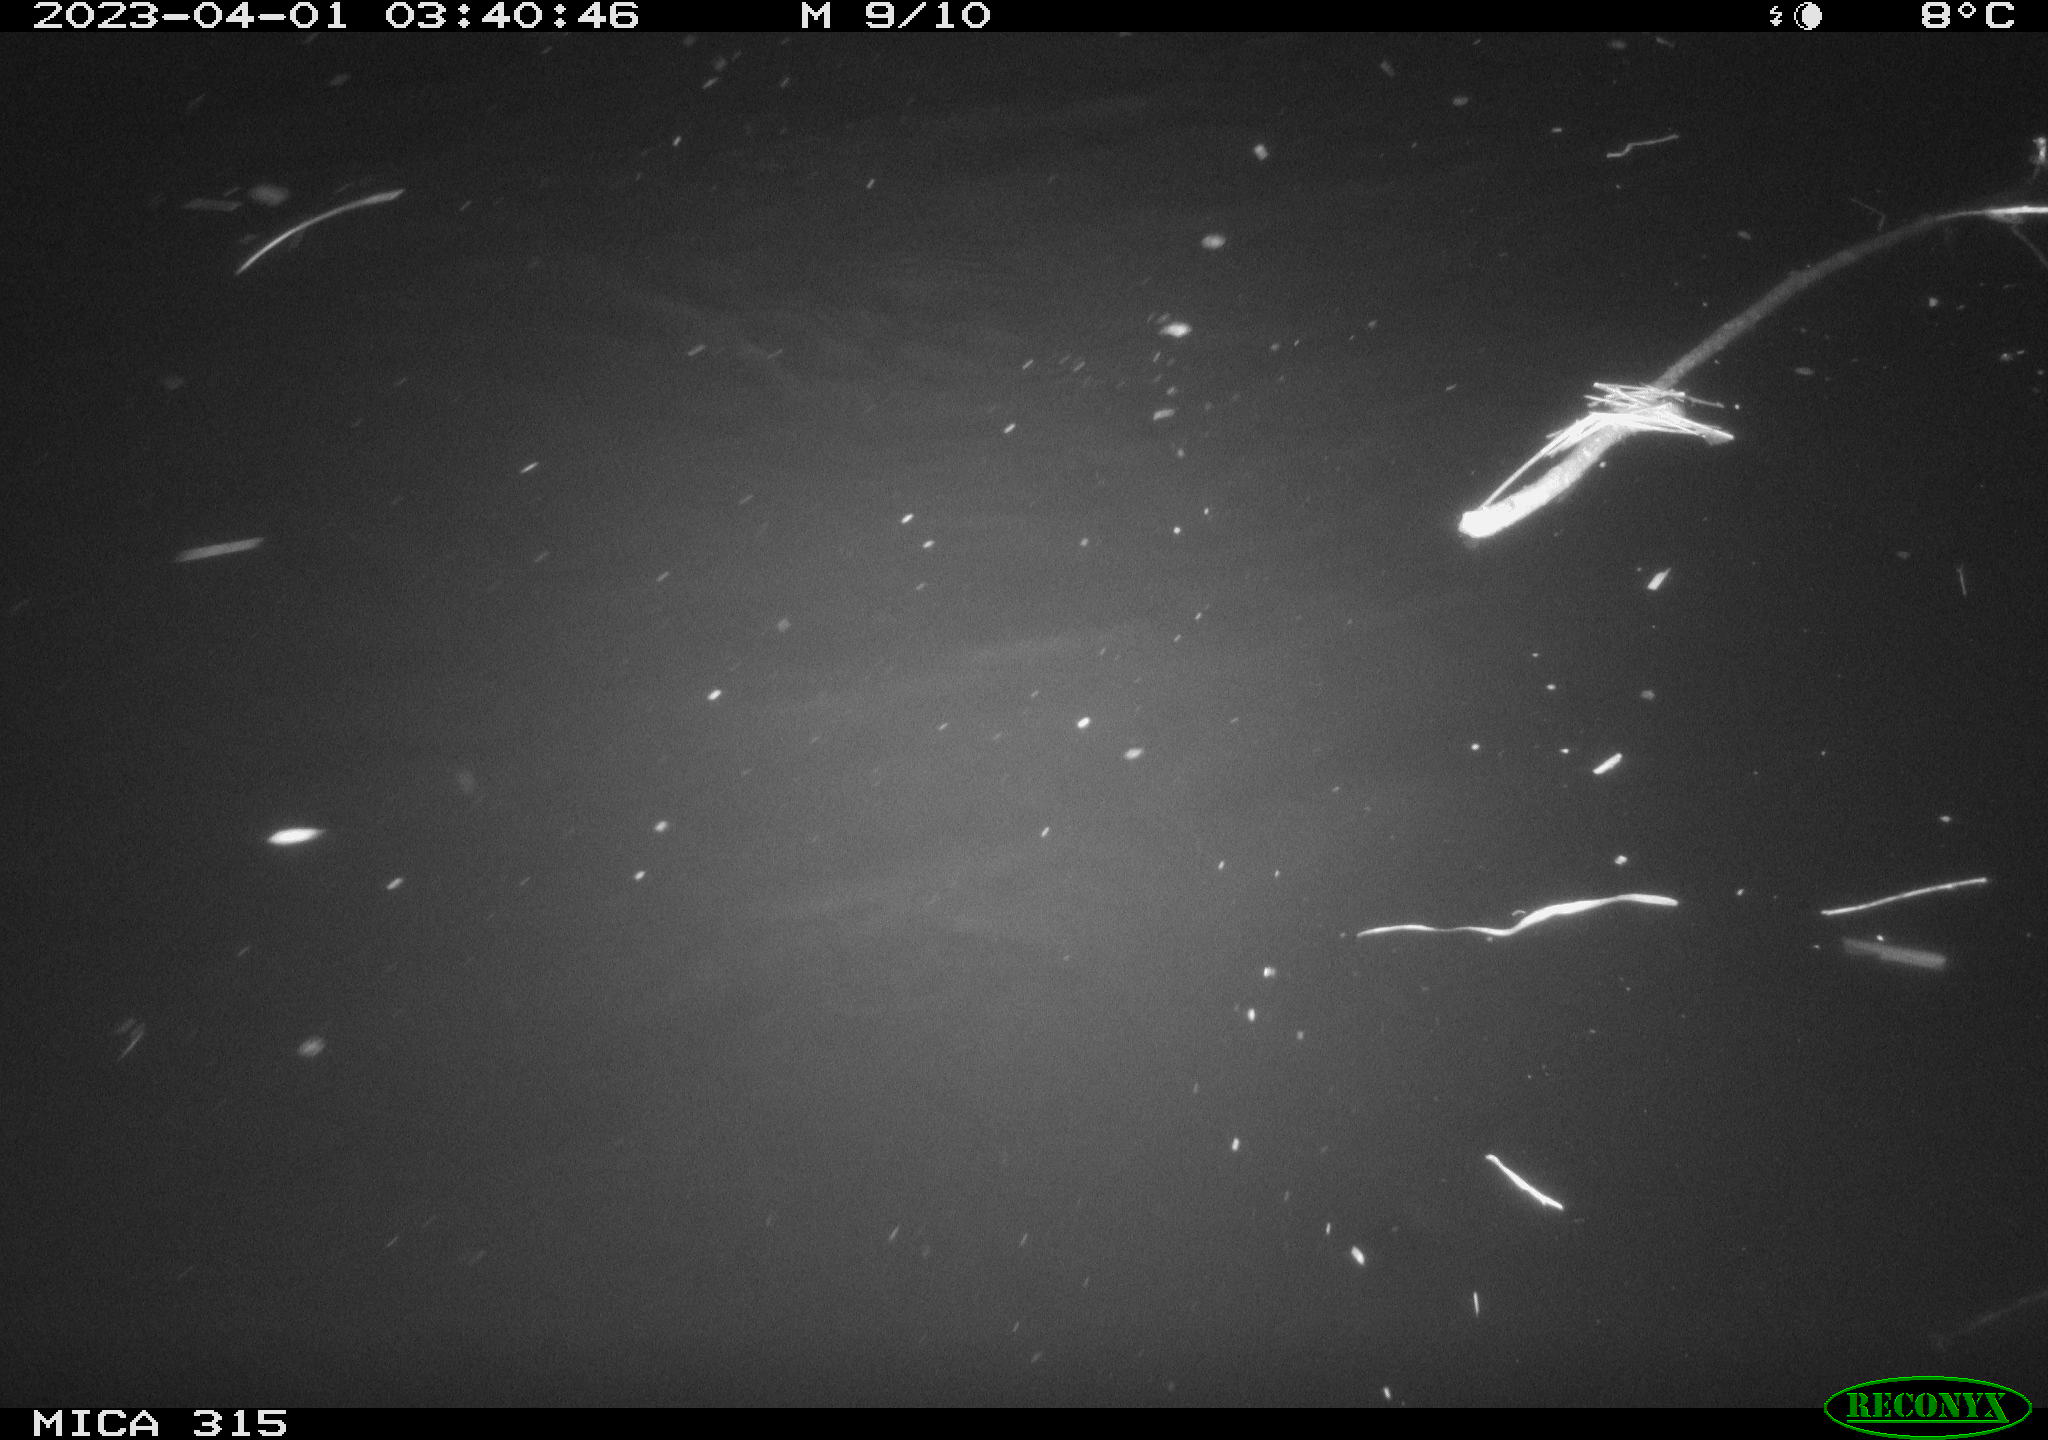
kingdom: Animalia
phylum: Chordata
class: Aves
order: Anseriformes
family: Anatidae
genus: Anas
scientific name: Anas
